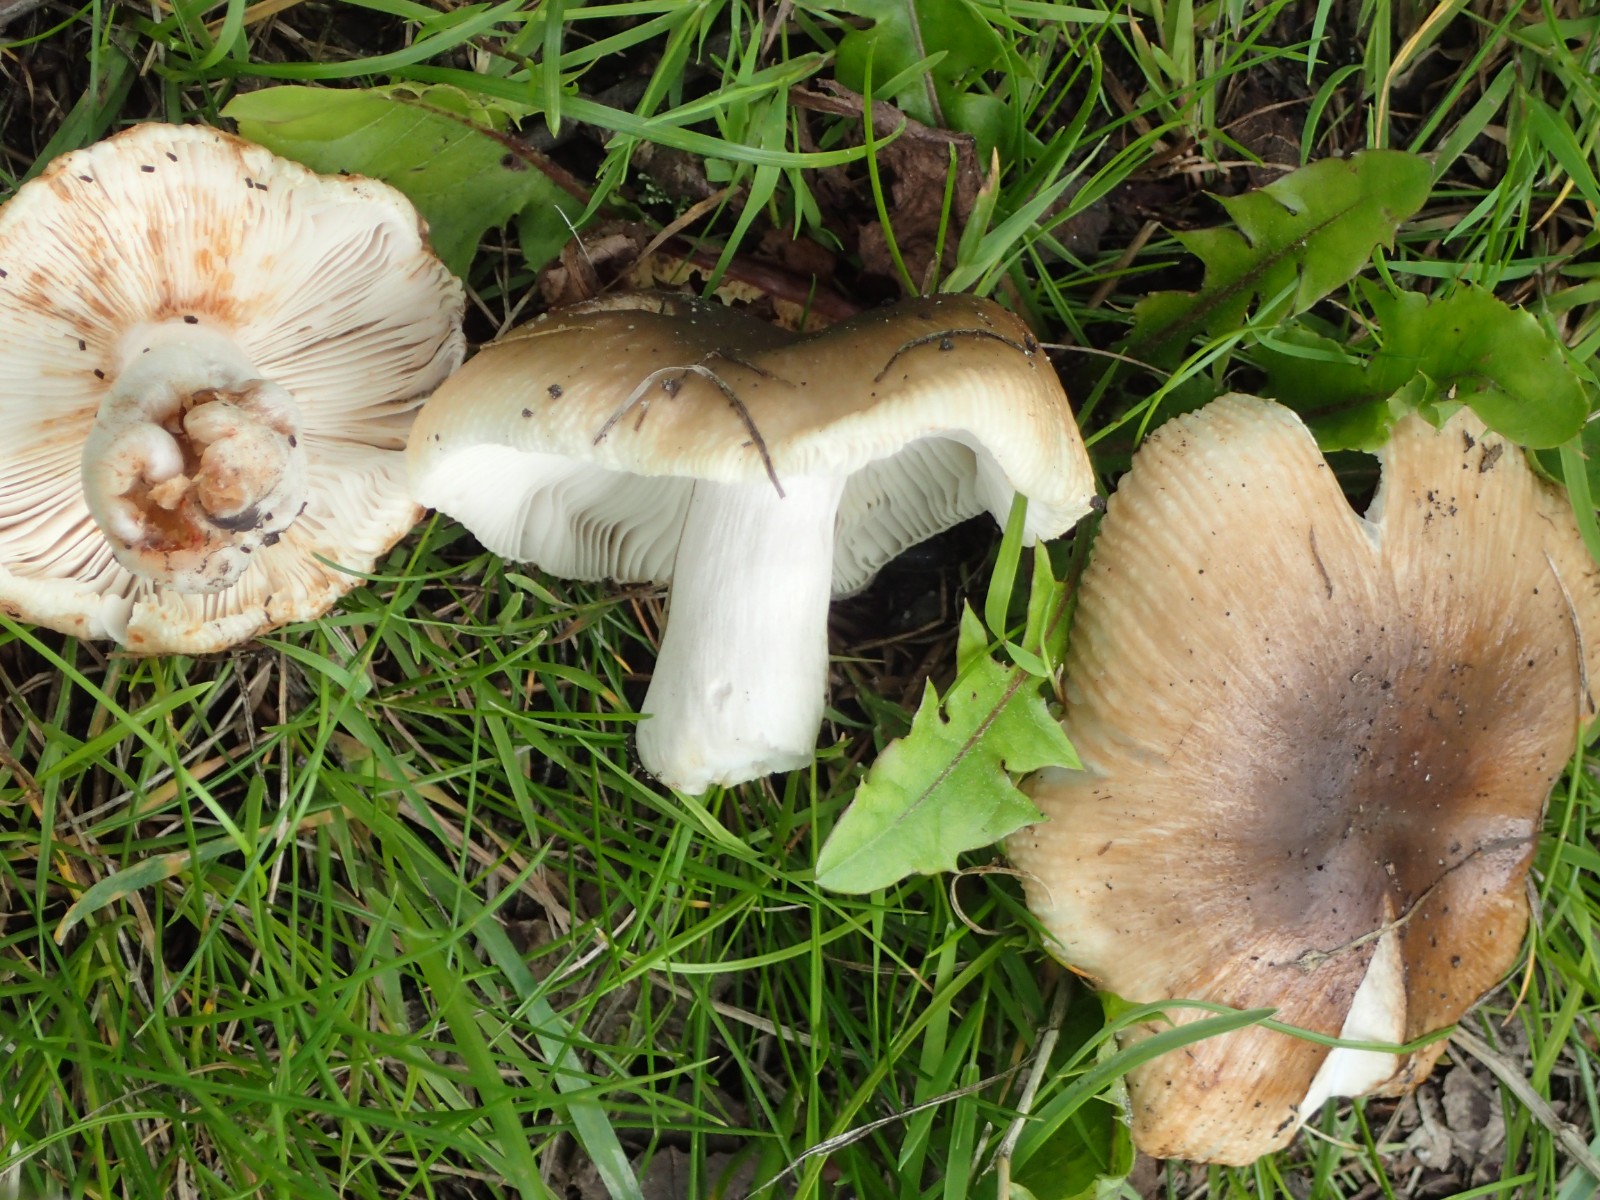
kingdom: Fungi
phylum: Basidiomycota
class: Agaricomycetes
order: Russulales
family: Russulaceae
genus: Russula
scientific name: Russula recondita
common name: mild kam-skørhat
